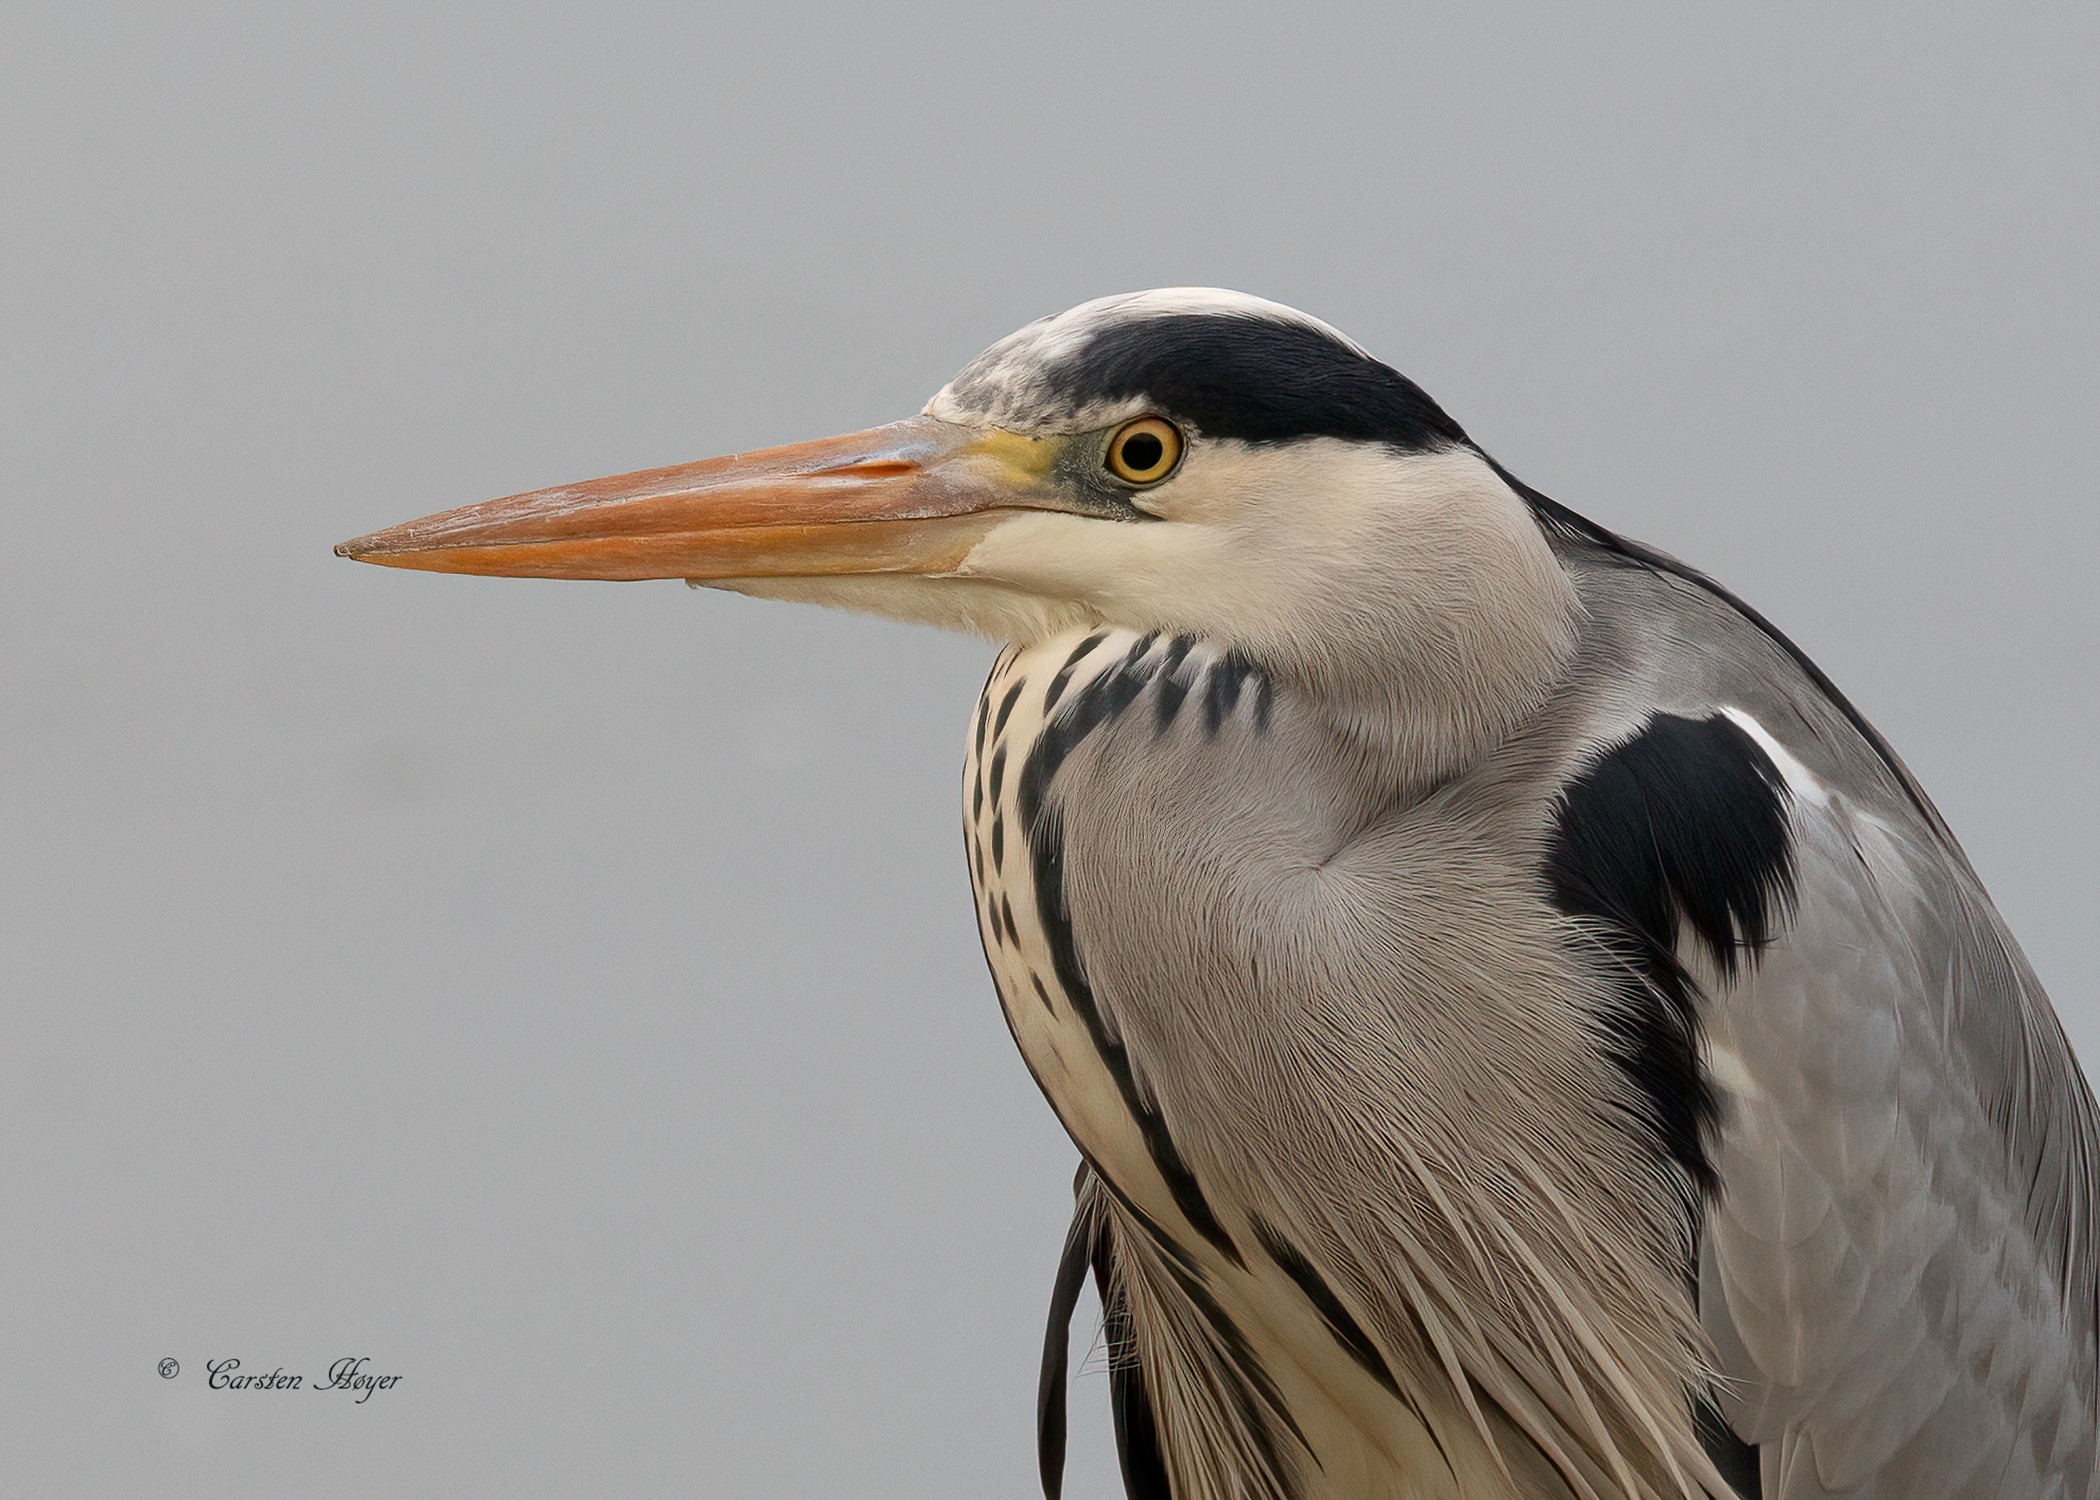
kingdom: Animalia
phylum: Chordata
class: Aves
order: Pelecaniformes
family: Ardeidae
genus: Ardea
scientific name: Ardea cinerea
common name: Fiskehejre
